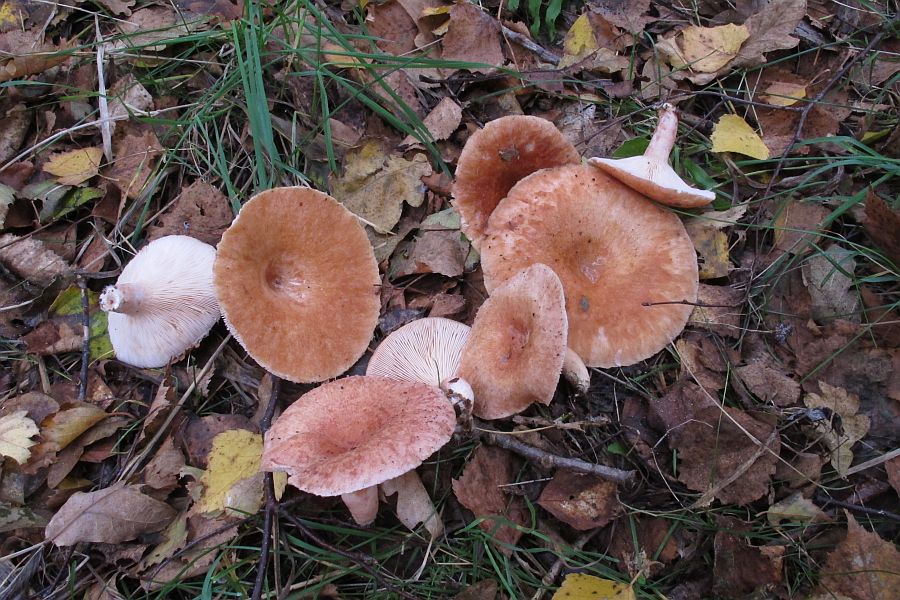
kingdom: Fungi
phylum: Basidiomycota
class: Agaricomycetes
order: Russulales
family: Russulaceae
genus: Lactarius
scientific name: Lactarius torminosus
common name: skægget mælkehat
